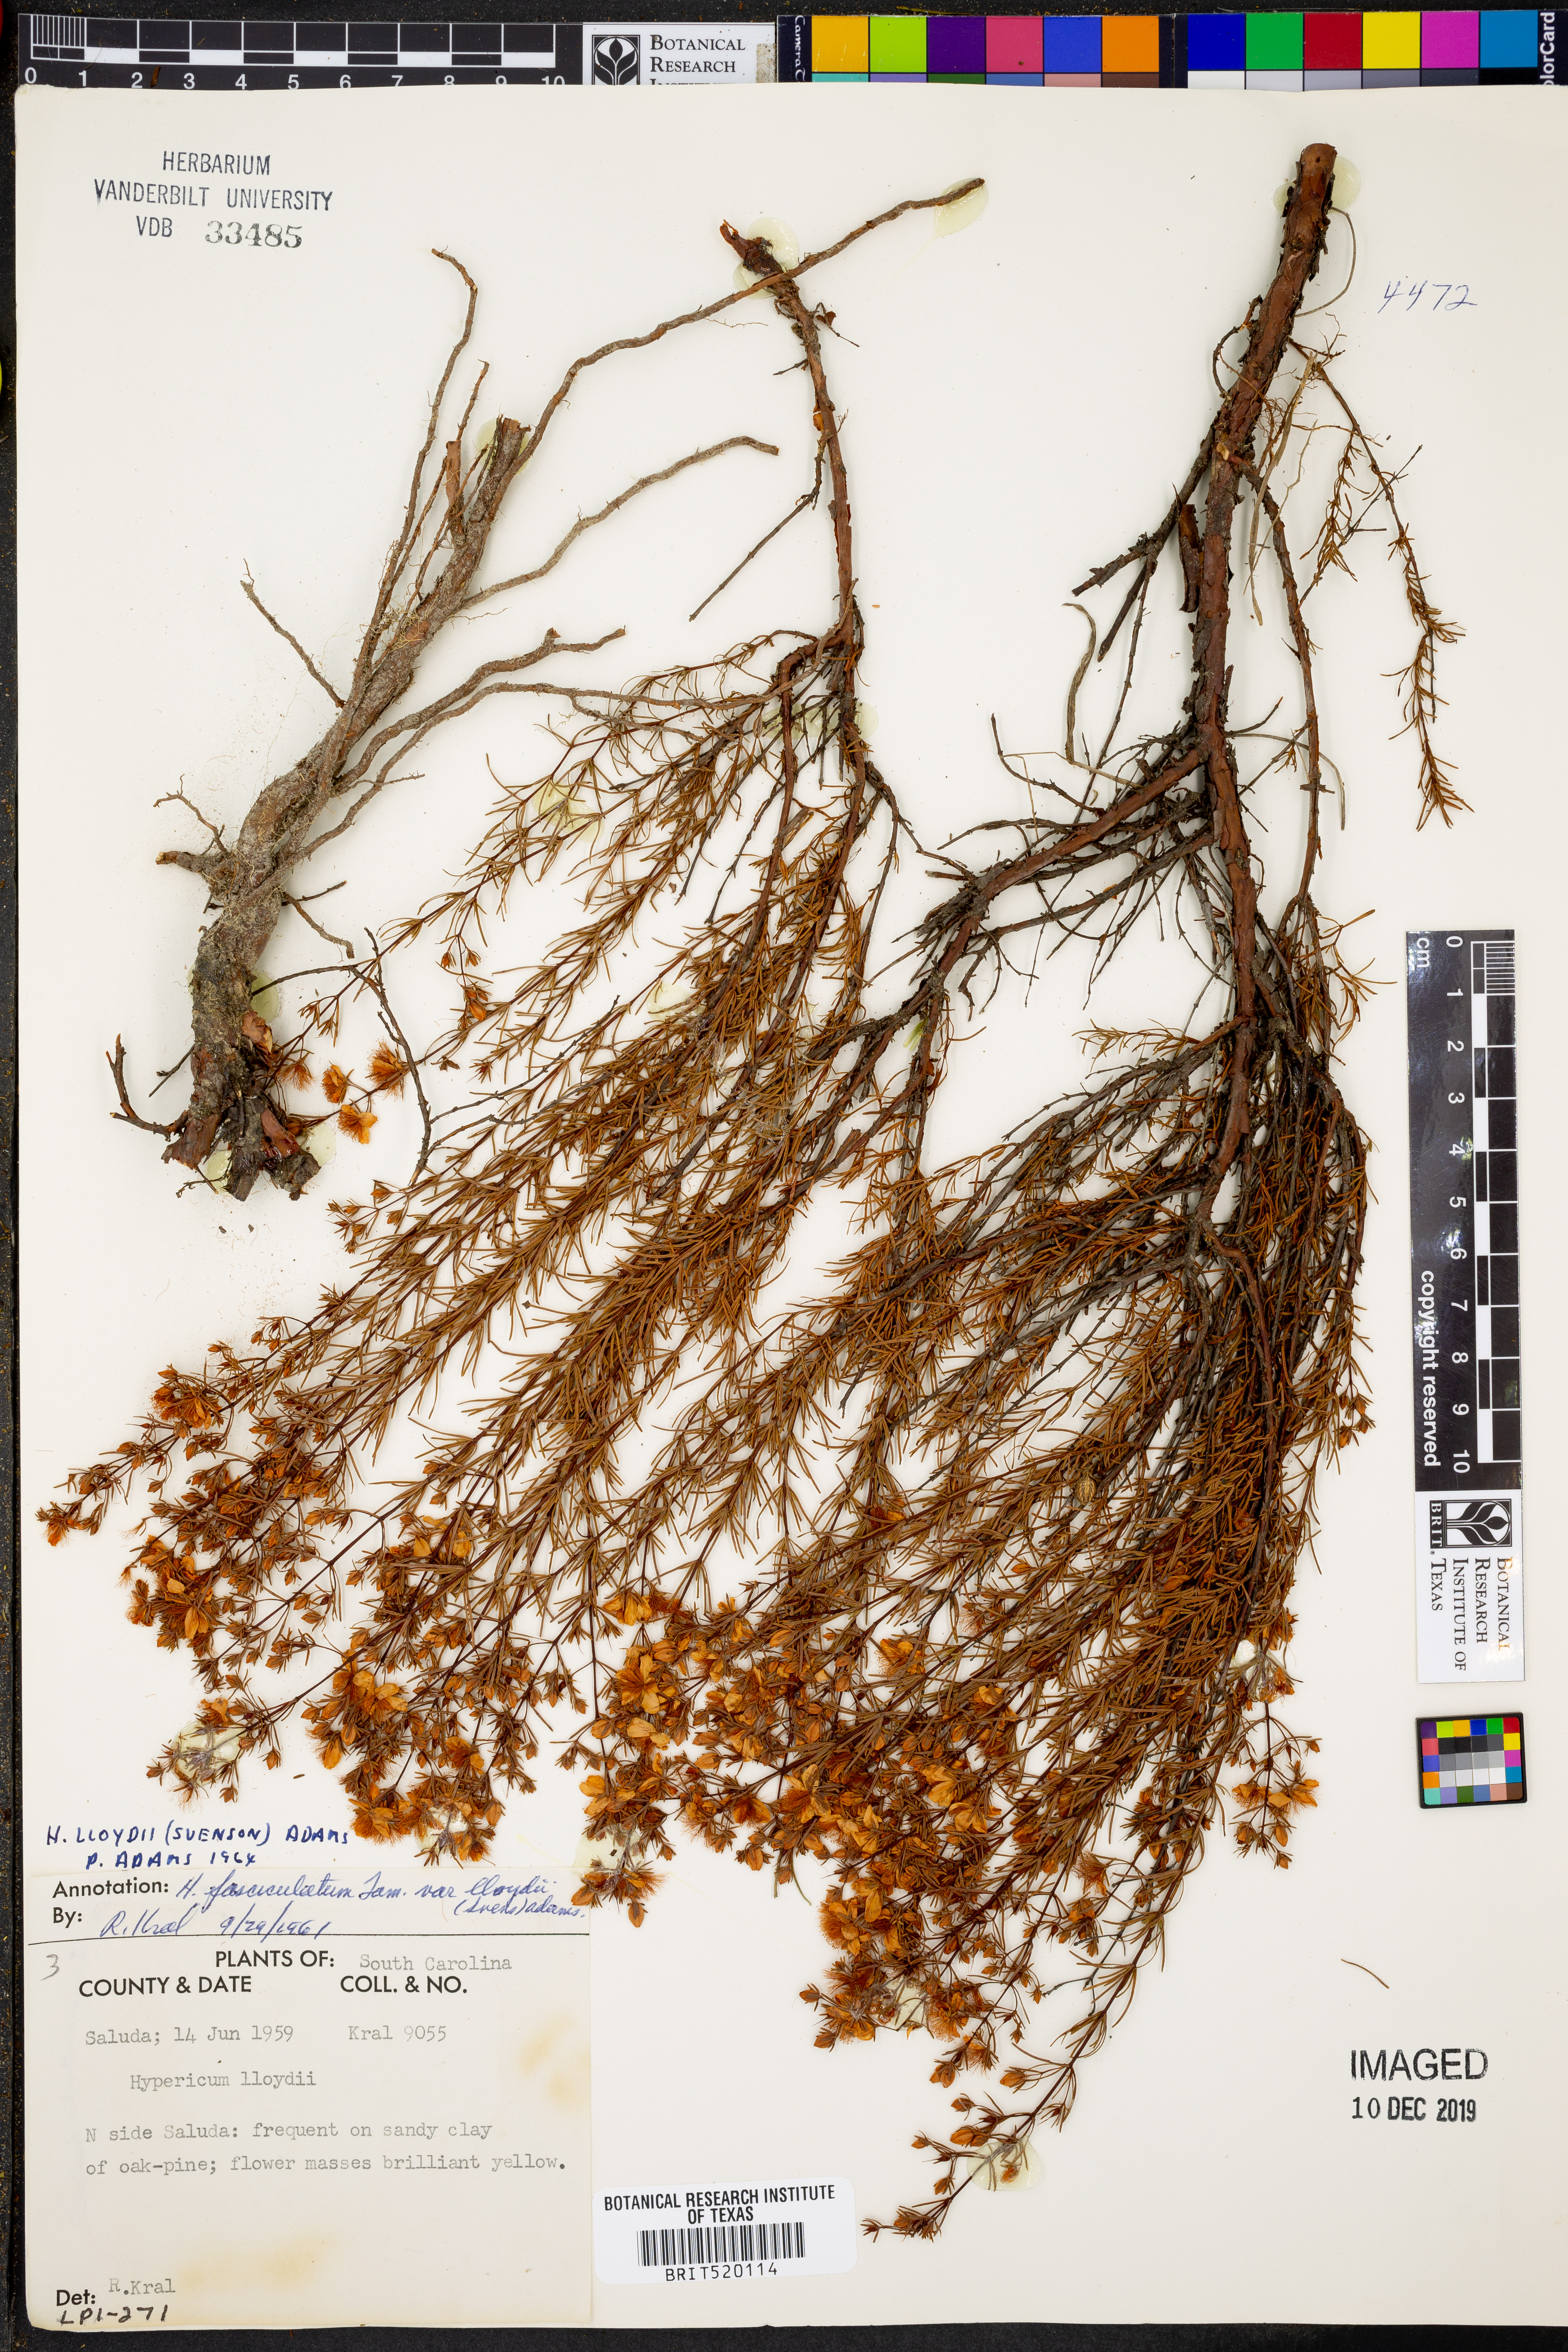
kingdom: Plantae
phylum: Tracheophyta
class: Magnoliopsida
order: Malpighiales
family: Hypericaceae
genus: Hypericum
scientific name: Hypericum lloydii
